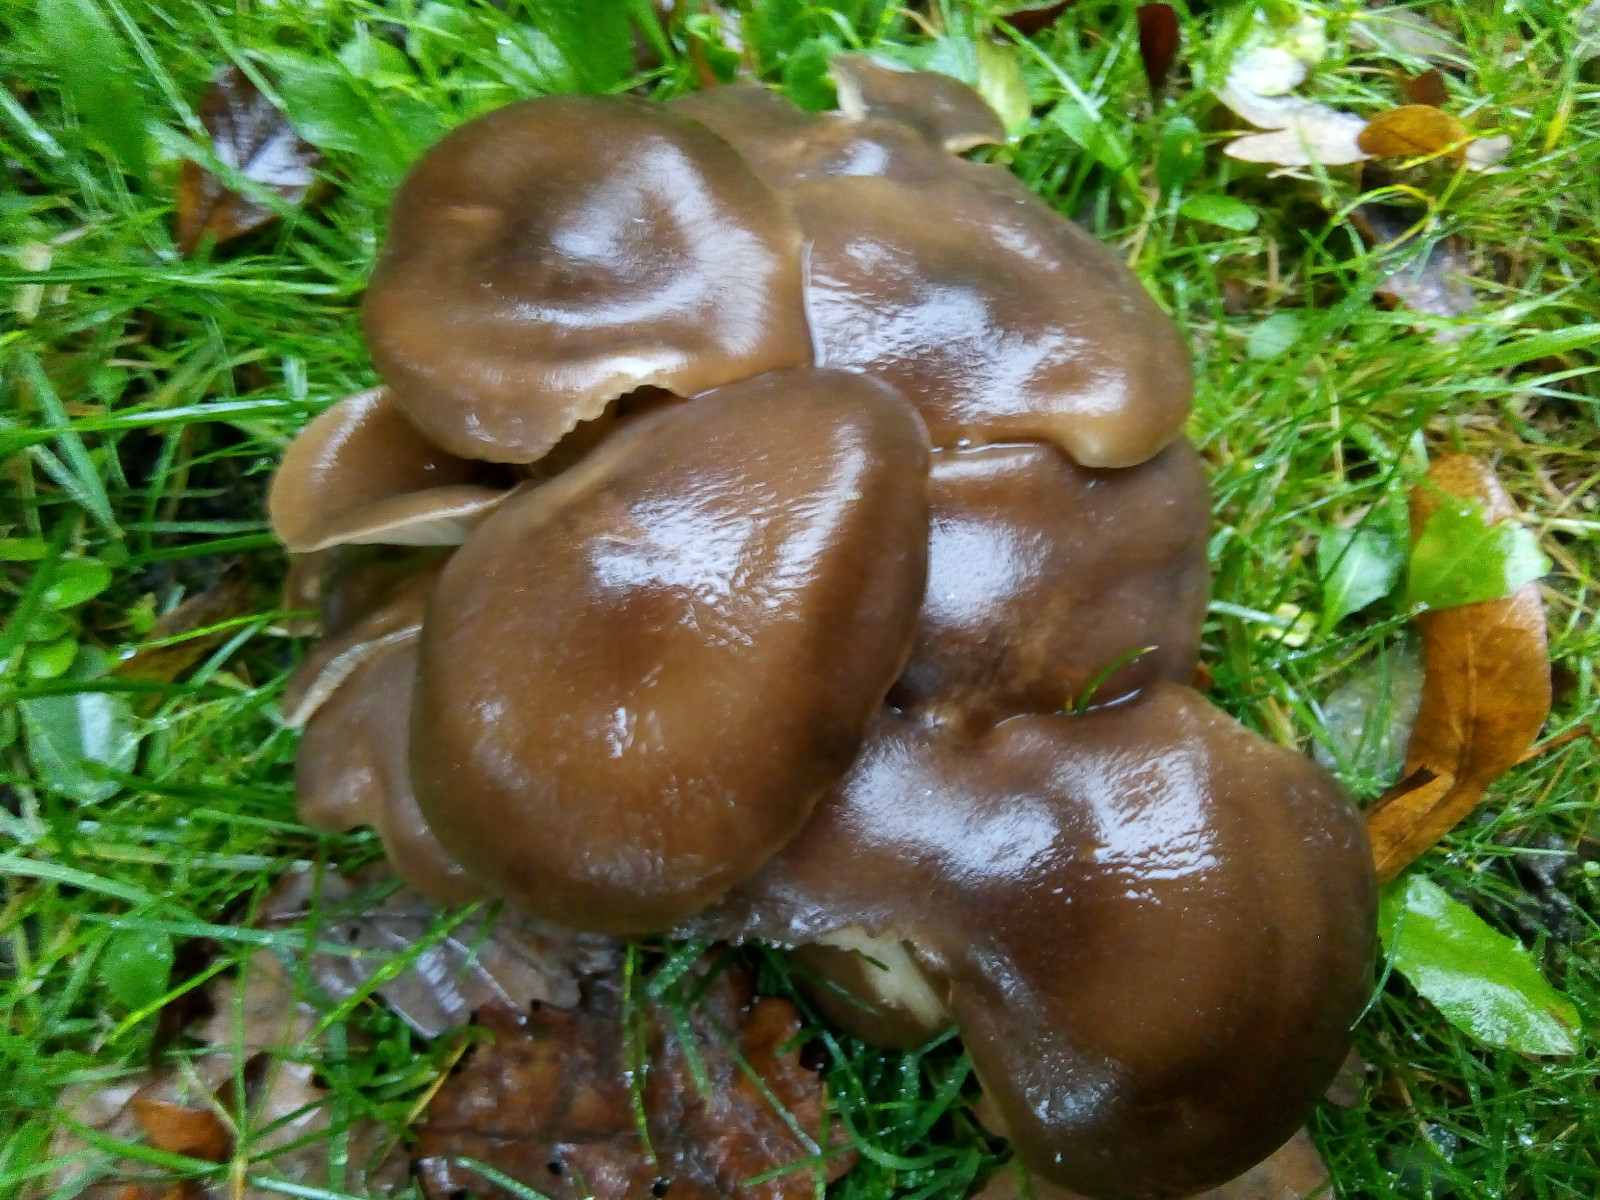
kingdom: Fungi
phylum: Basidiomycota
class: Agaricomycetes
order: Agaricales
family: Lyophyllaceae
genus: Lyophyllum
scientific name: Lyophyllum decastes
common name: røggrå gråblad
